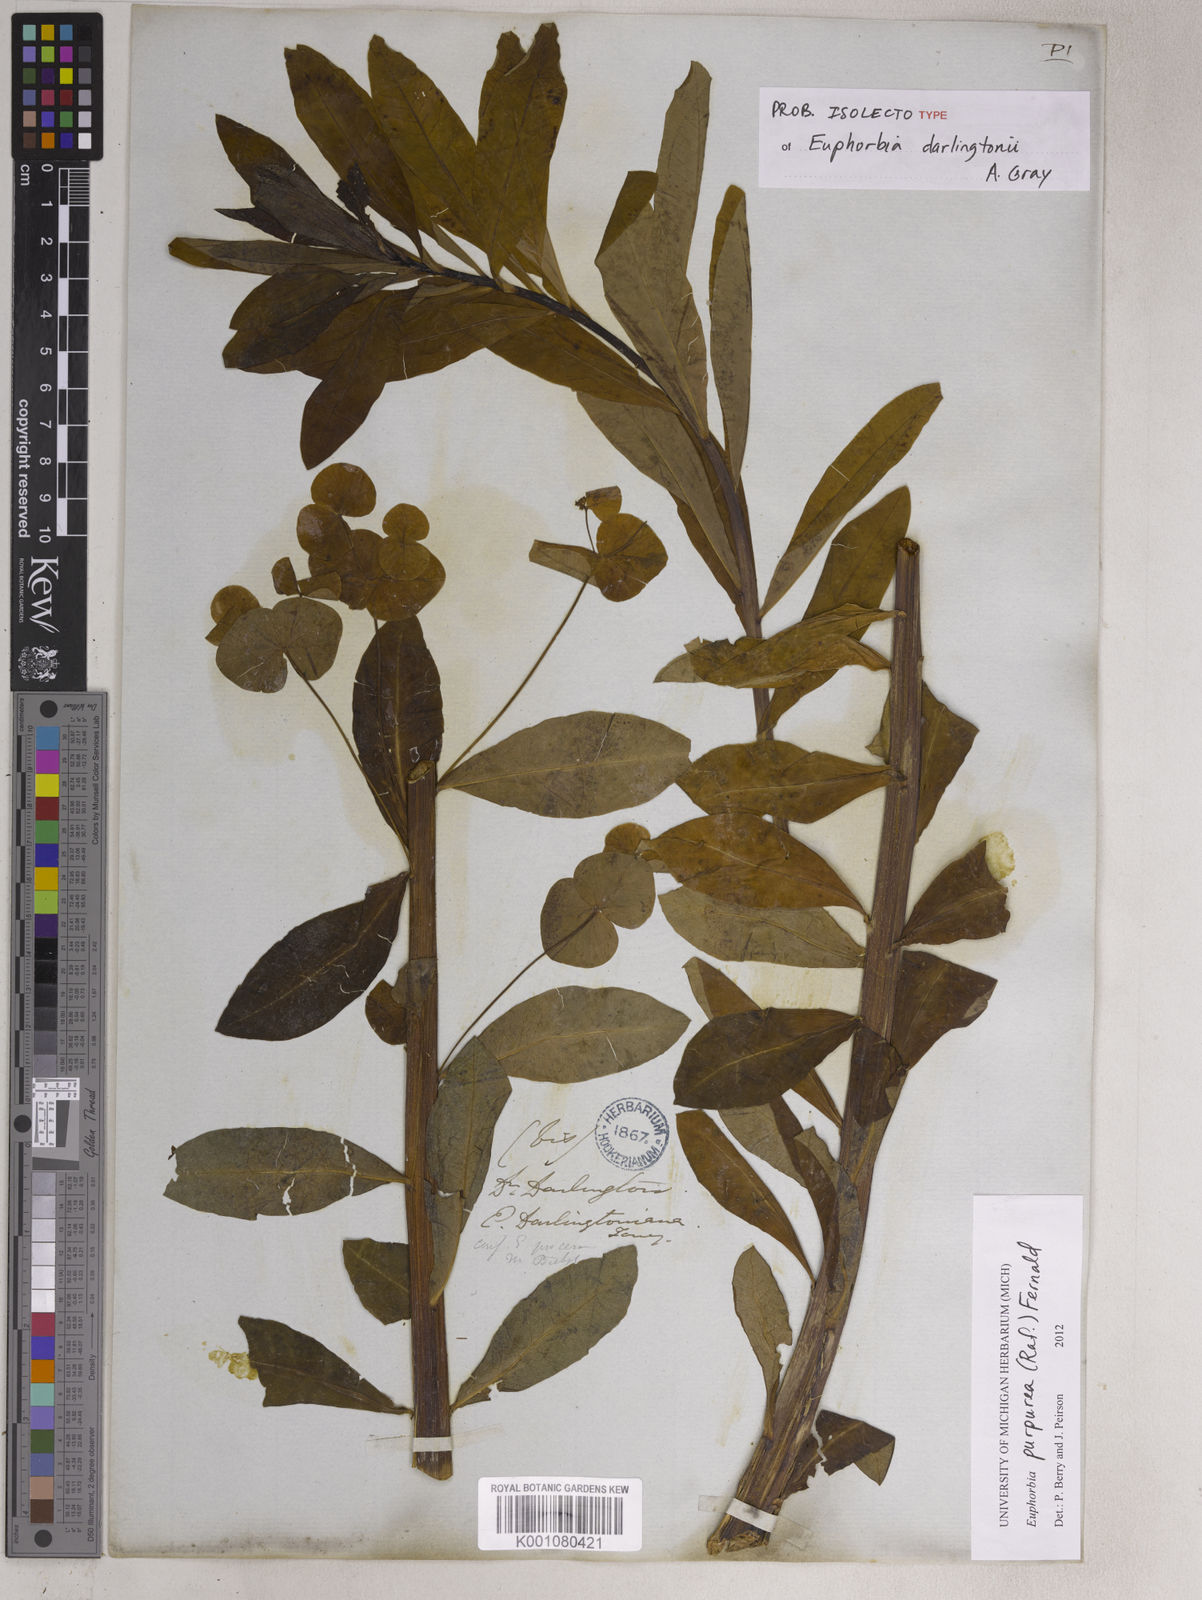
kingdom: Plantae
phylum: Tracheophyta
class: Magnoliopsida
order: Malpighiales
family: Euphorbiaceae
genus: Euphorbia
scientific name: Euphorbia purpurea
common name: Darlington's spurge
